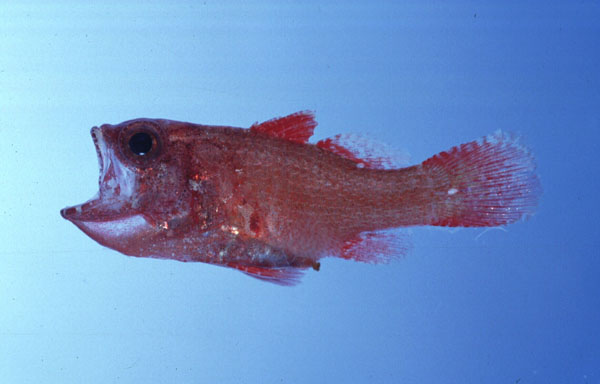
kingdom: Animalia
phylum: Chordata
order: Perciformes
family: Apogonidae
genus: Apogonichthys
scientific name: Apogonichthys perdix
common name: Perdix cardinalfish
